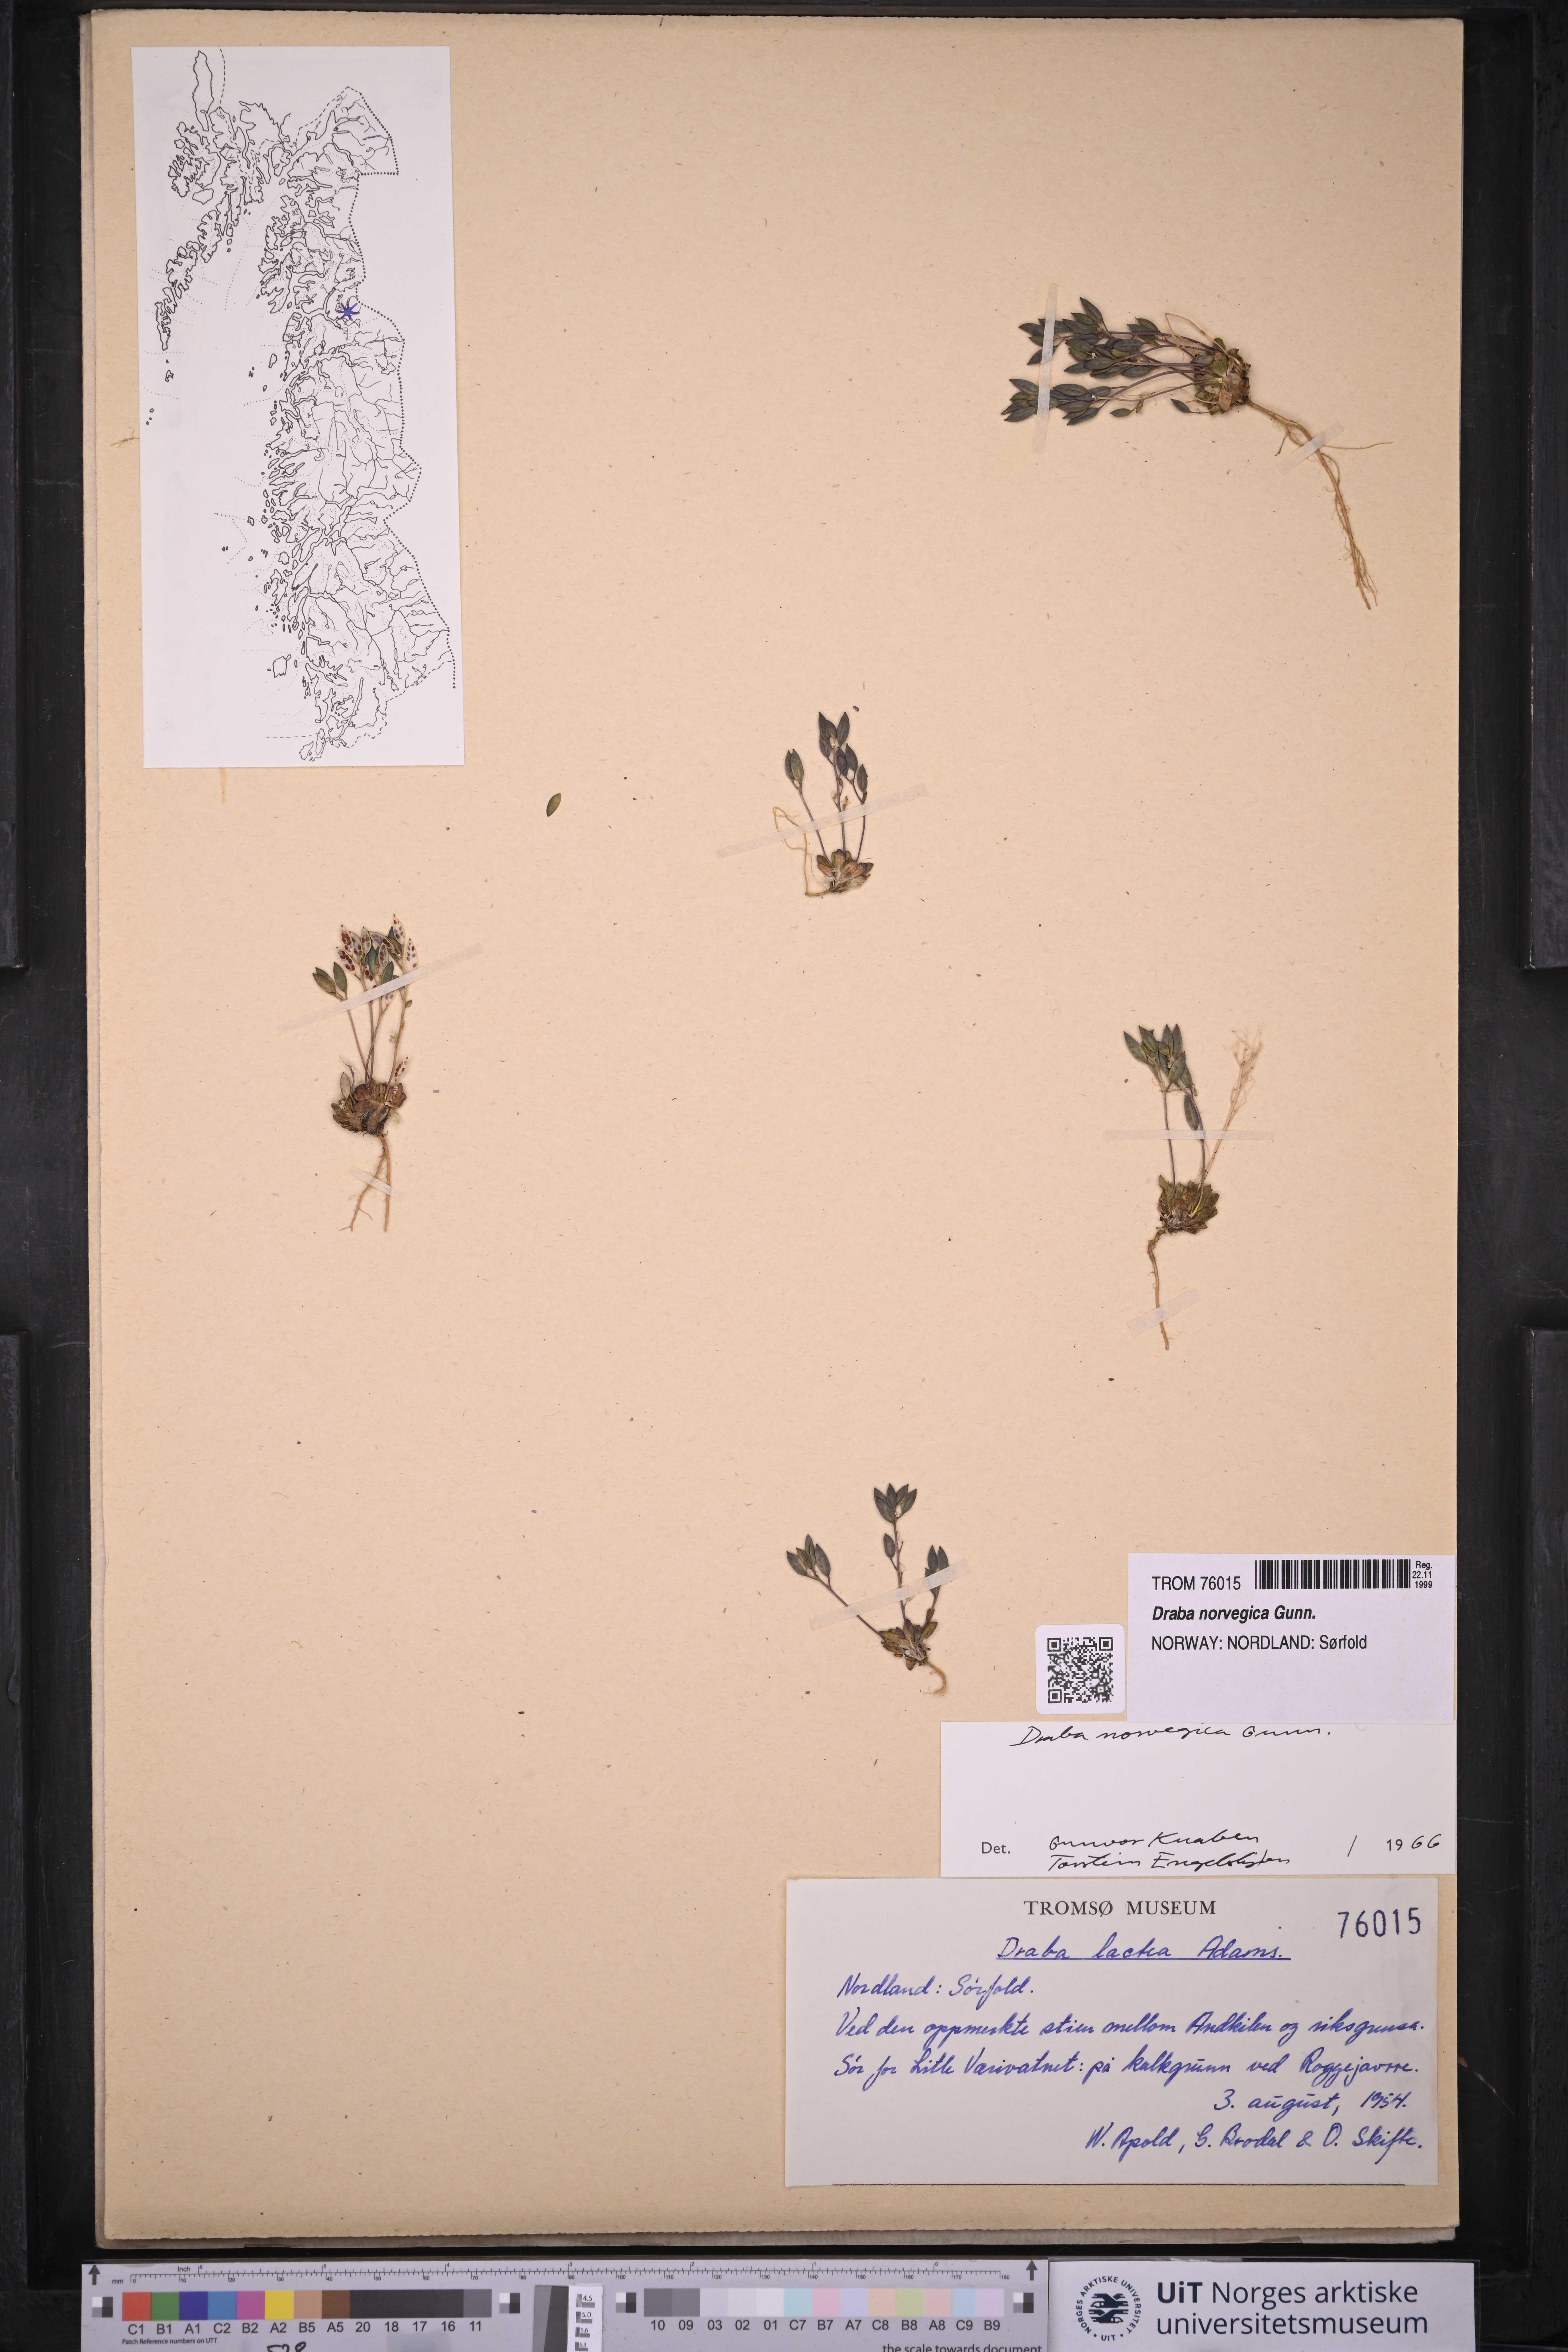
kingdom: Plantae
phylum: Tracheophyta
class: Magnoliopsida
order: Brassicales
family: Brassicaceae
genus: Draba
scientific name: Draba norvegica
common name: Rock whitlowgrass
